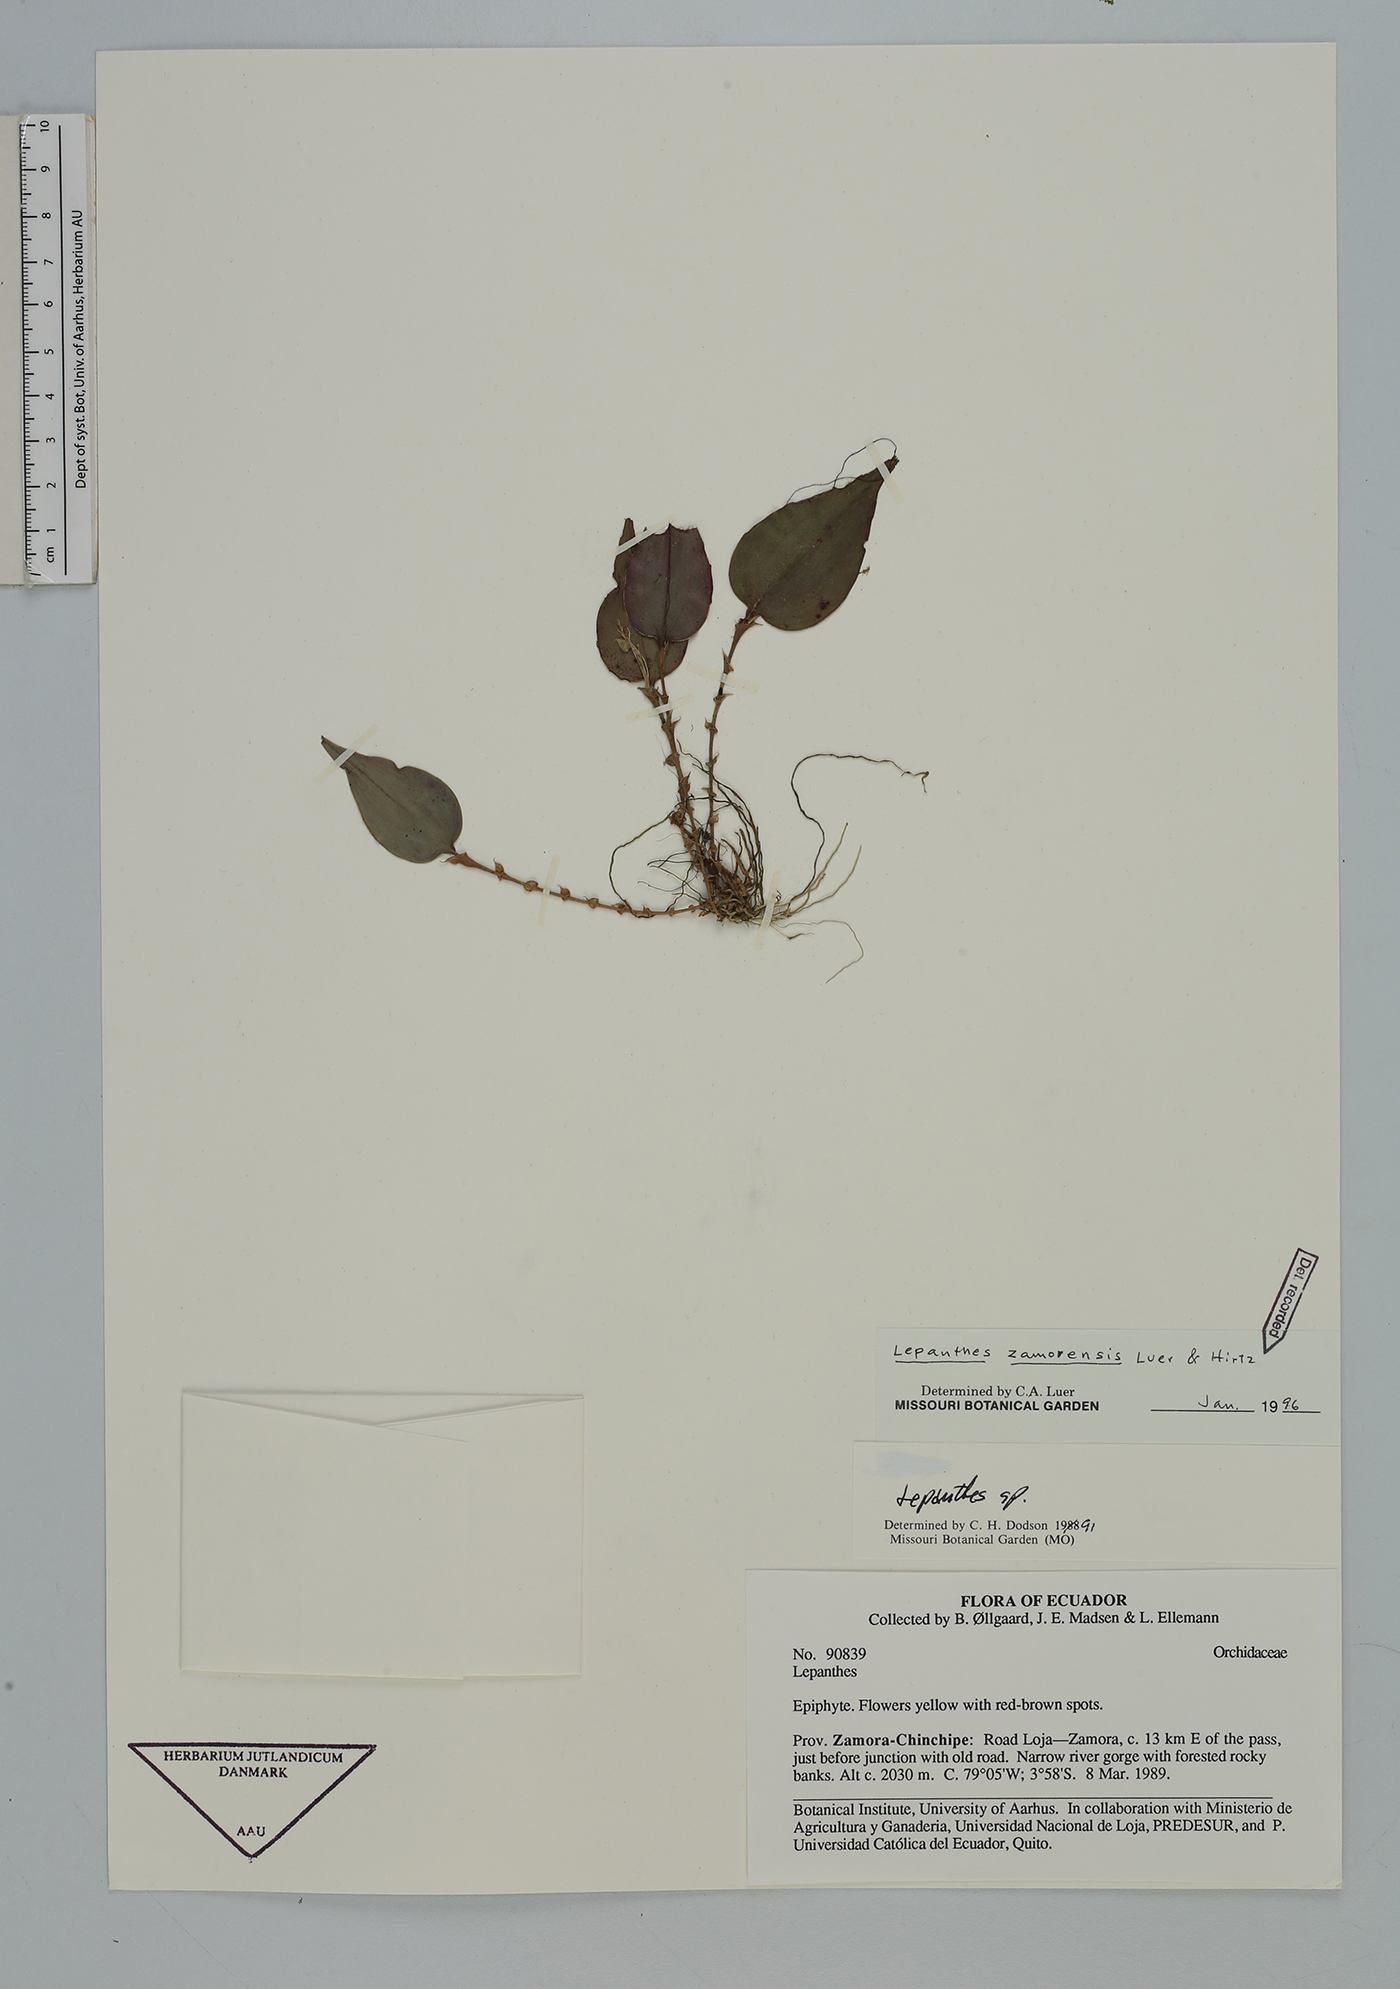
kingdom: Plantae
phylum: Tracheophyta
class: Liliopsida
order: Asparagales
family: Orchidaceae
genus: Lepanthes
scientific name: Lepanthes zamorensis
